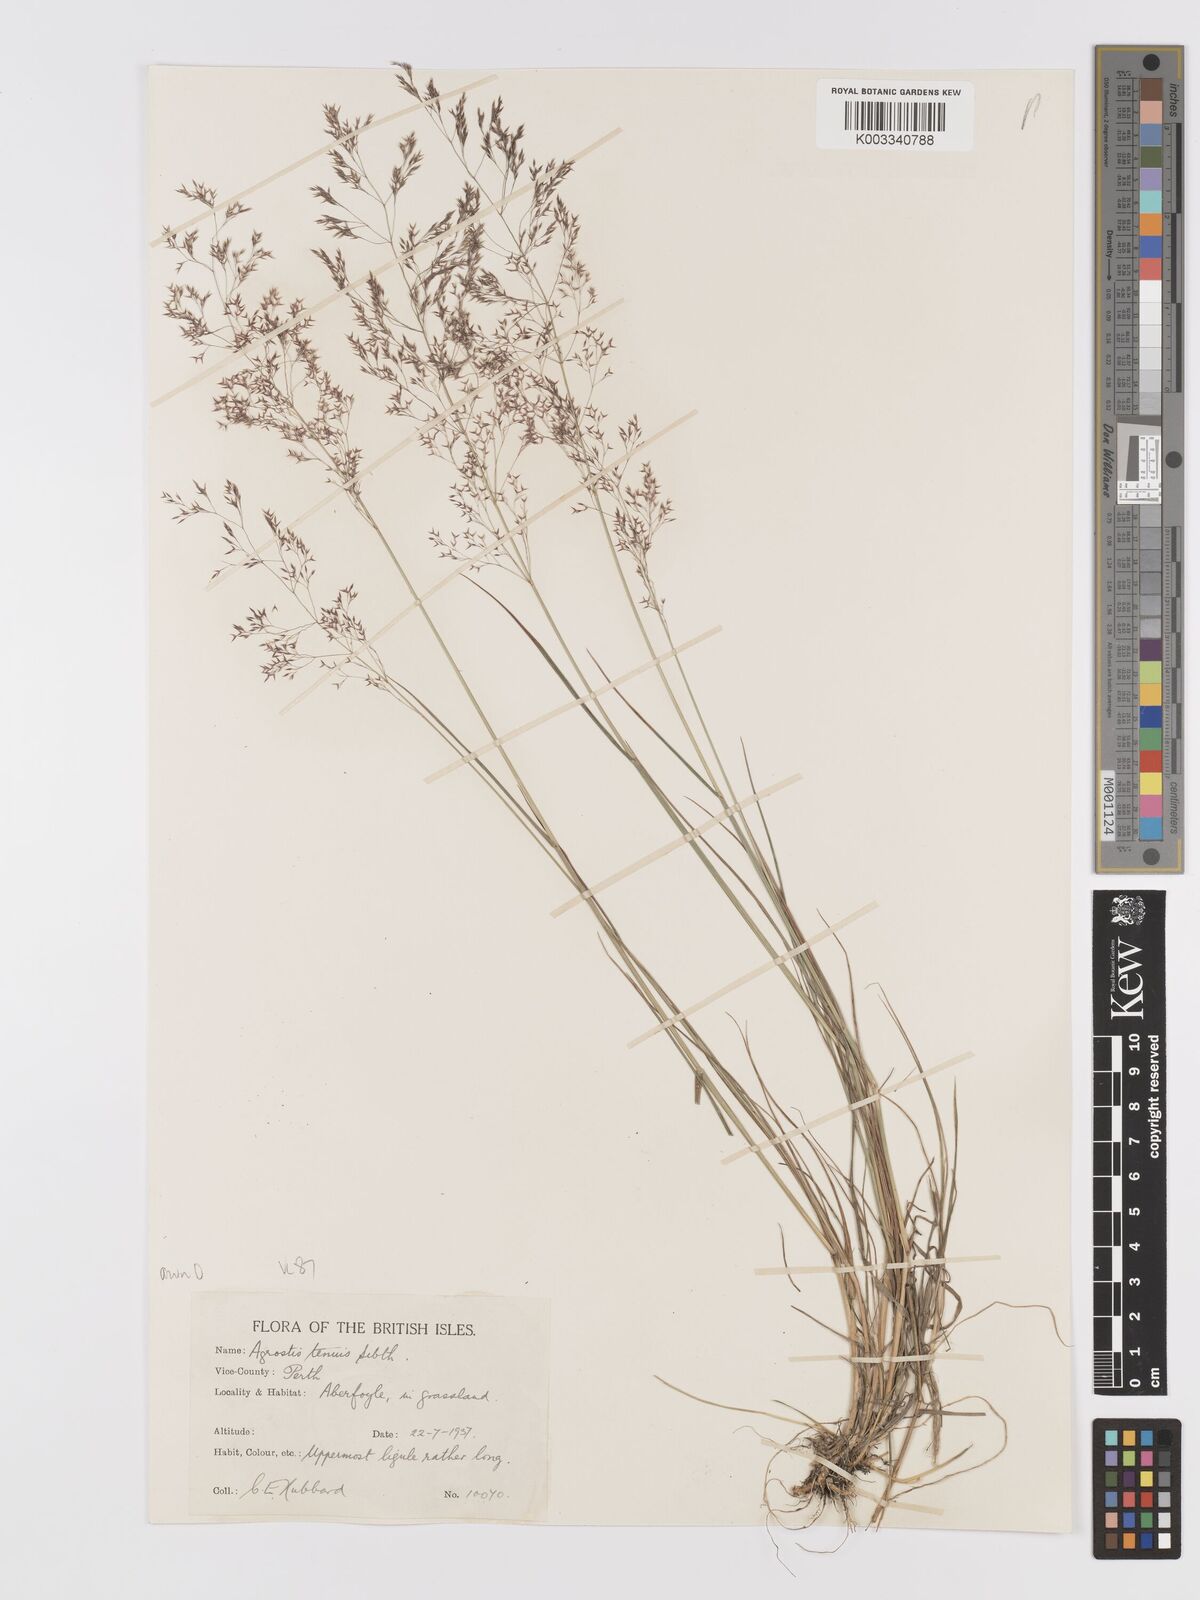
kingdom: Plantae
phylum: Tracheophyta
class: Liliopsida
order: Poales
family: Poaceae
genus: Agrostis
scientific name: Agrostis capillaris
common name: Colonial bentgrass
